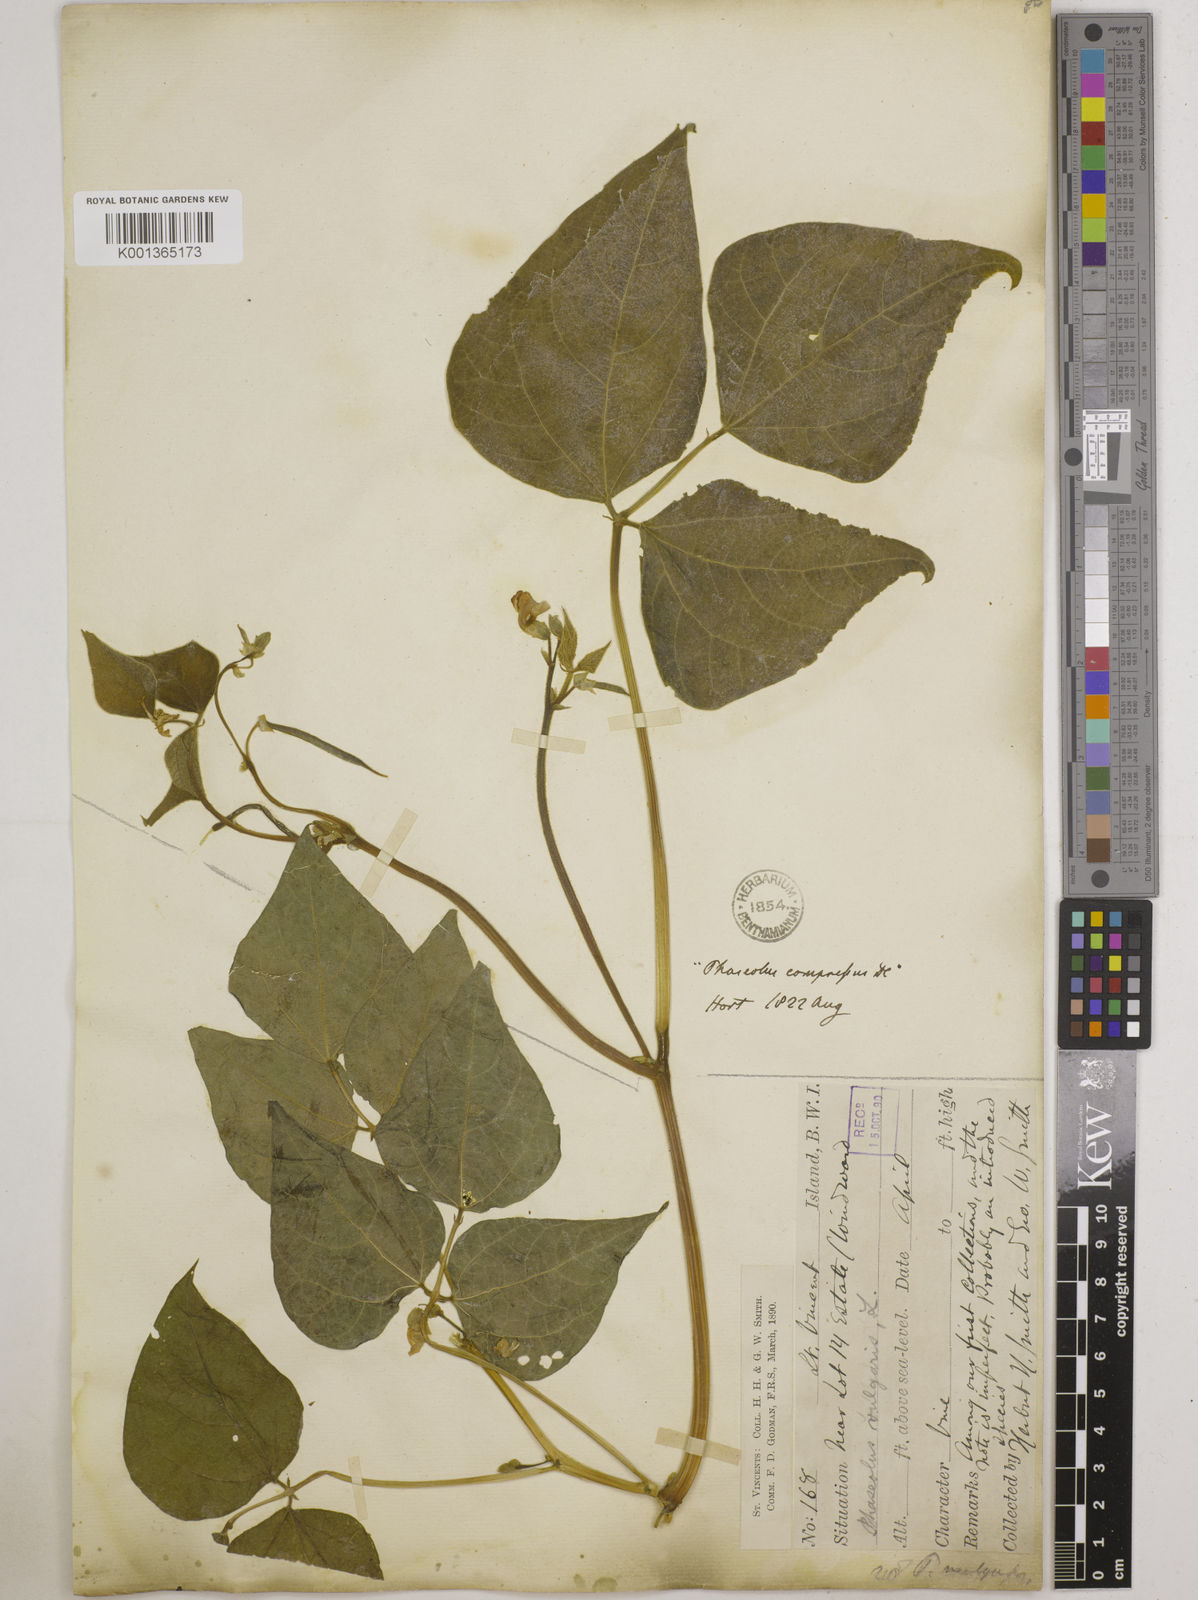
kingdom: Plantae
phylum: Tracheophyta
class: Magnoliopsida
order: Fabales
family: Fabaceae
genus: Phaseolus
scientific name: Phaseolus vulgaris
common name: Bean
